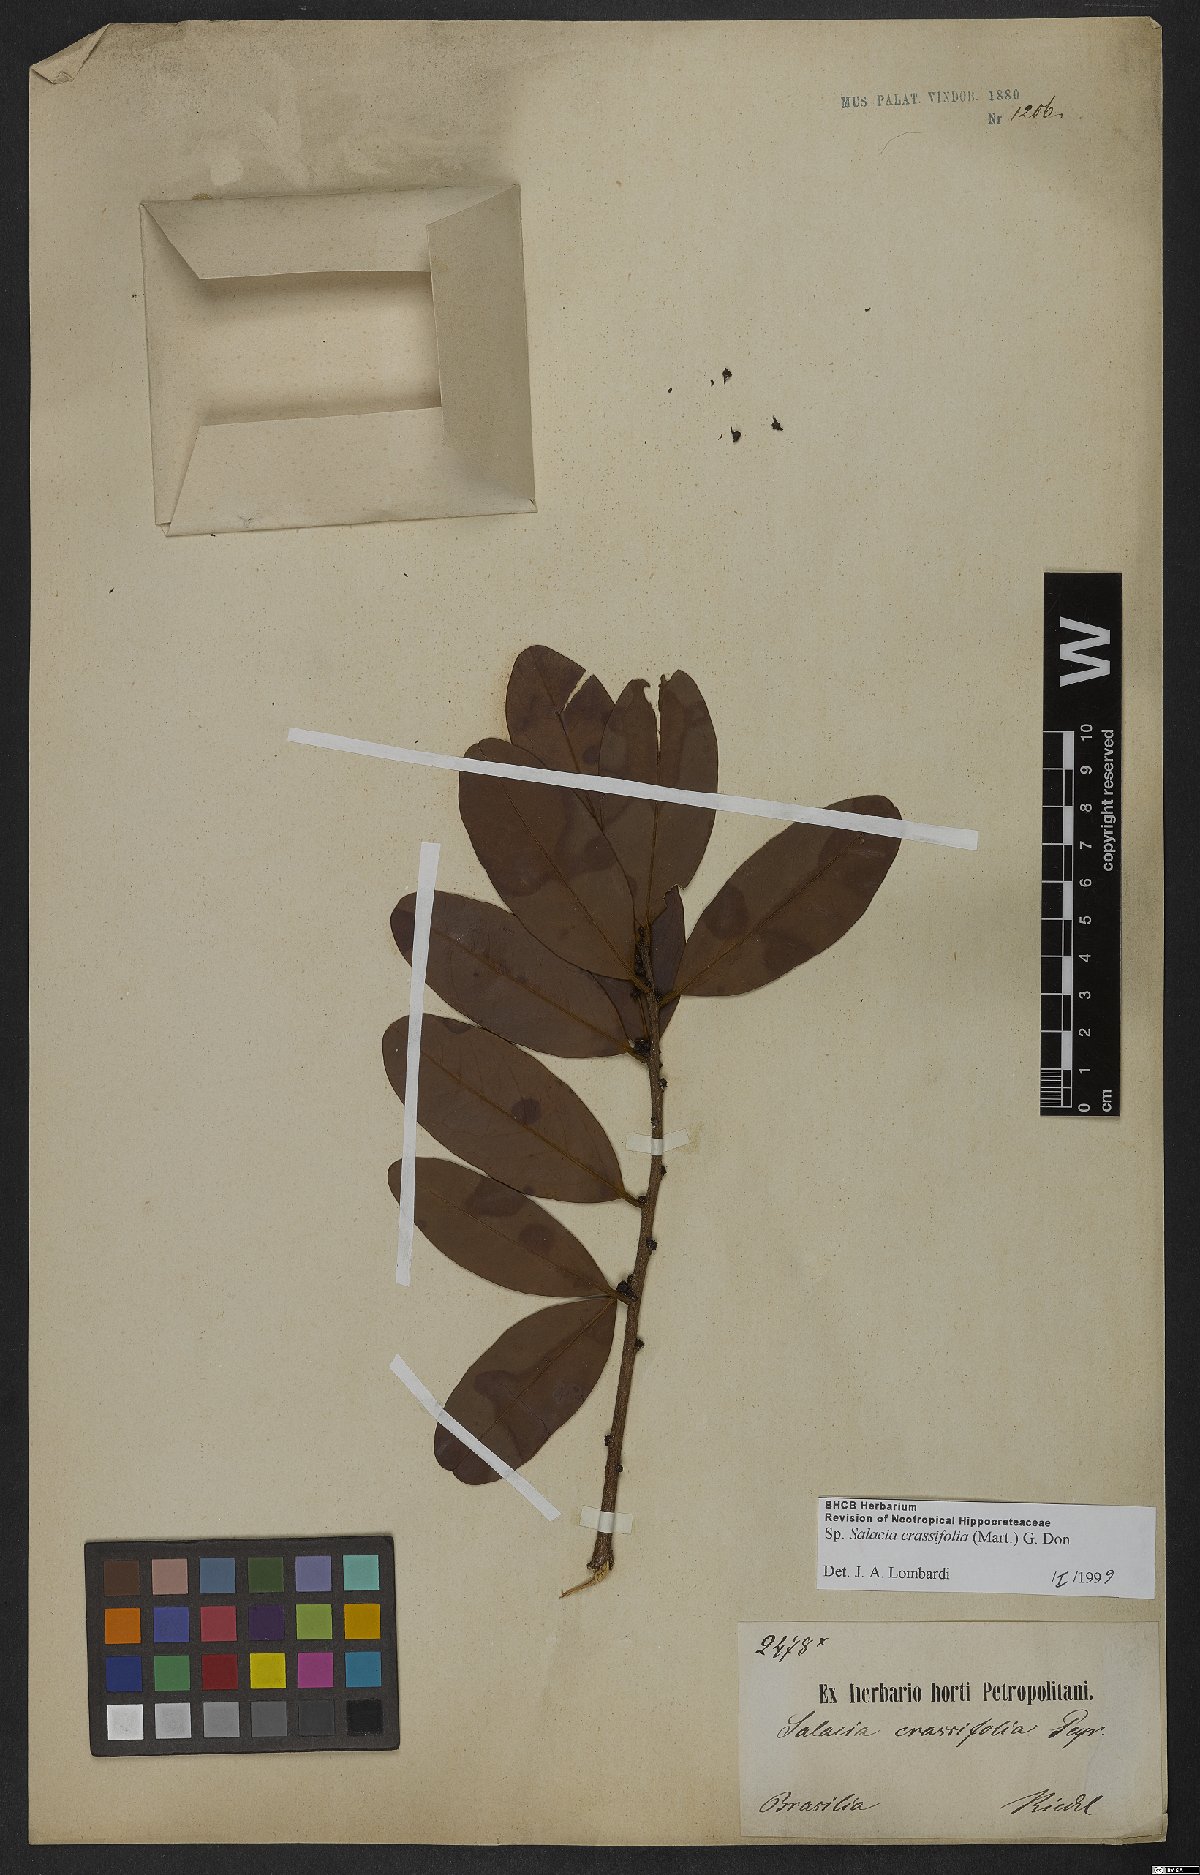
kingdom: Plantae
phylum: Tracheophyta
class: Magnoliopsida
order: Celastrales
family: Celastraceae
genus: Salacia
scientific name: Salacia crassifolia
